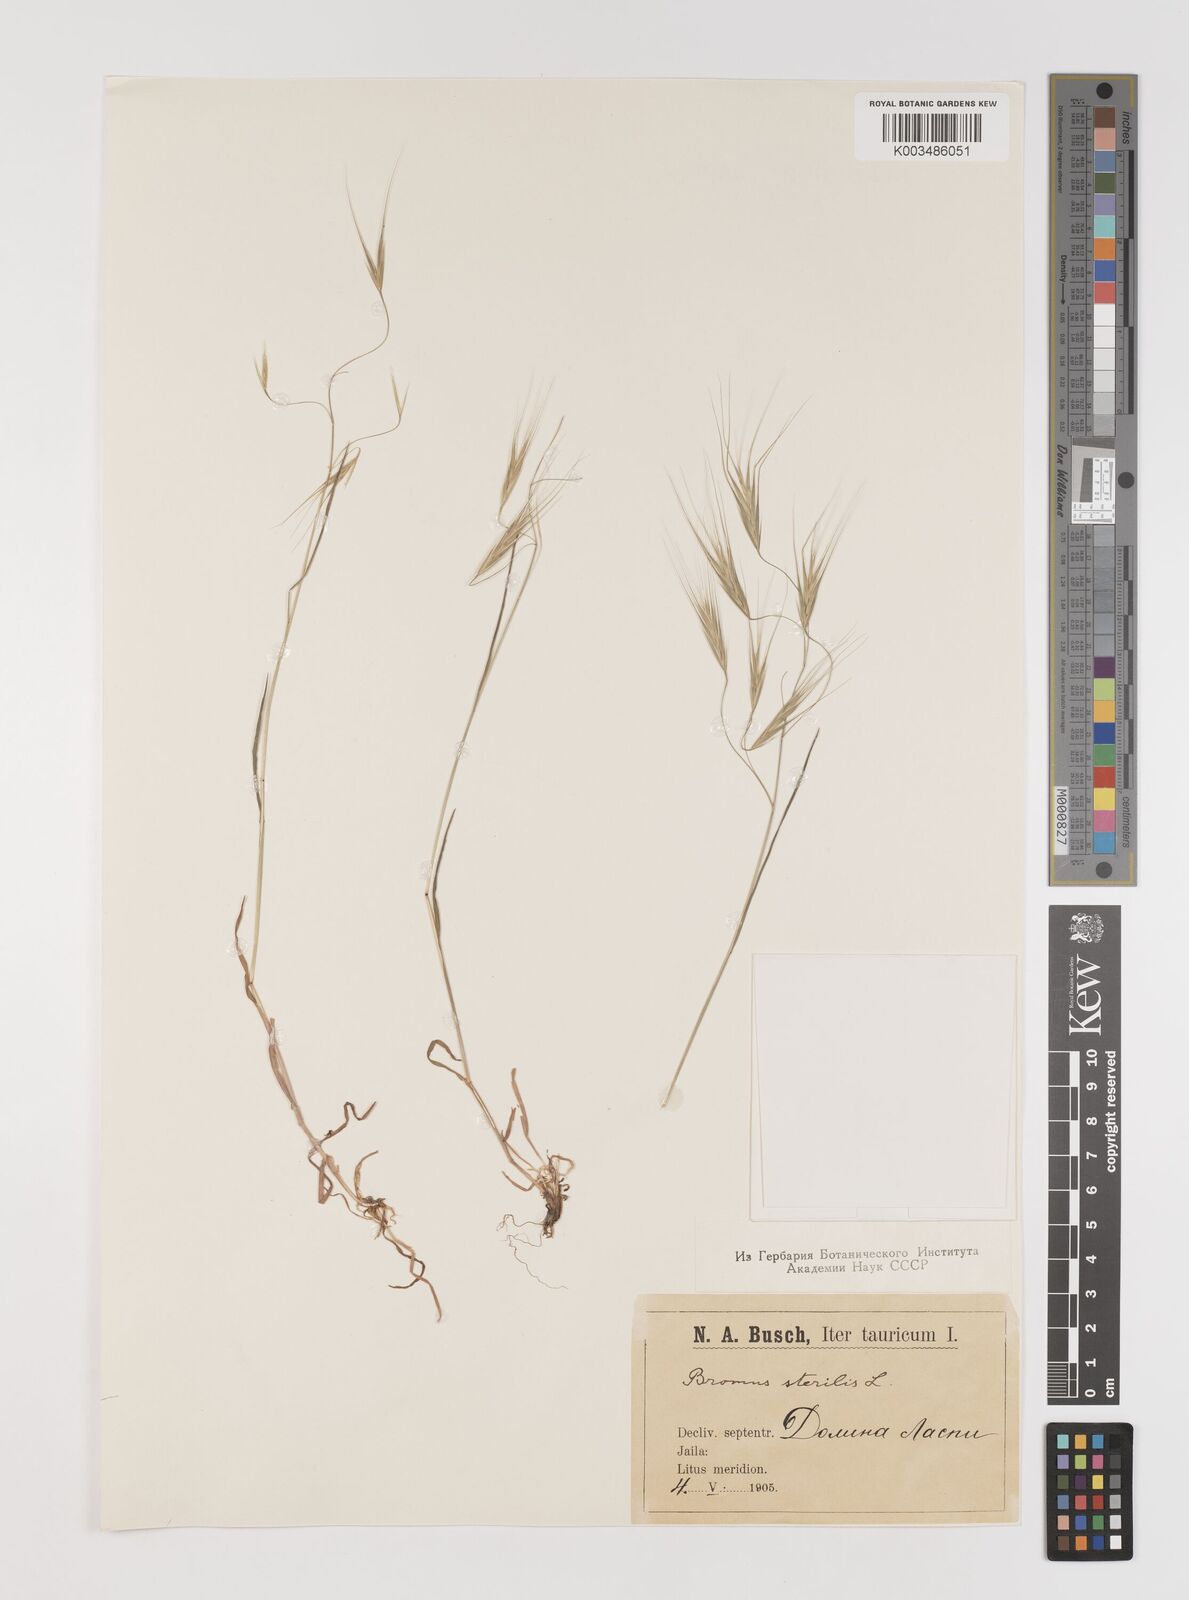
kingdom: Plantae
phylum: Tracheophyta
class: Liliopsida
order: Poales
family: Poaceae
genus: Bromus
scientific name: Bromus sterilis
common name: Poverty brome
